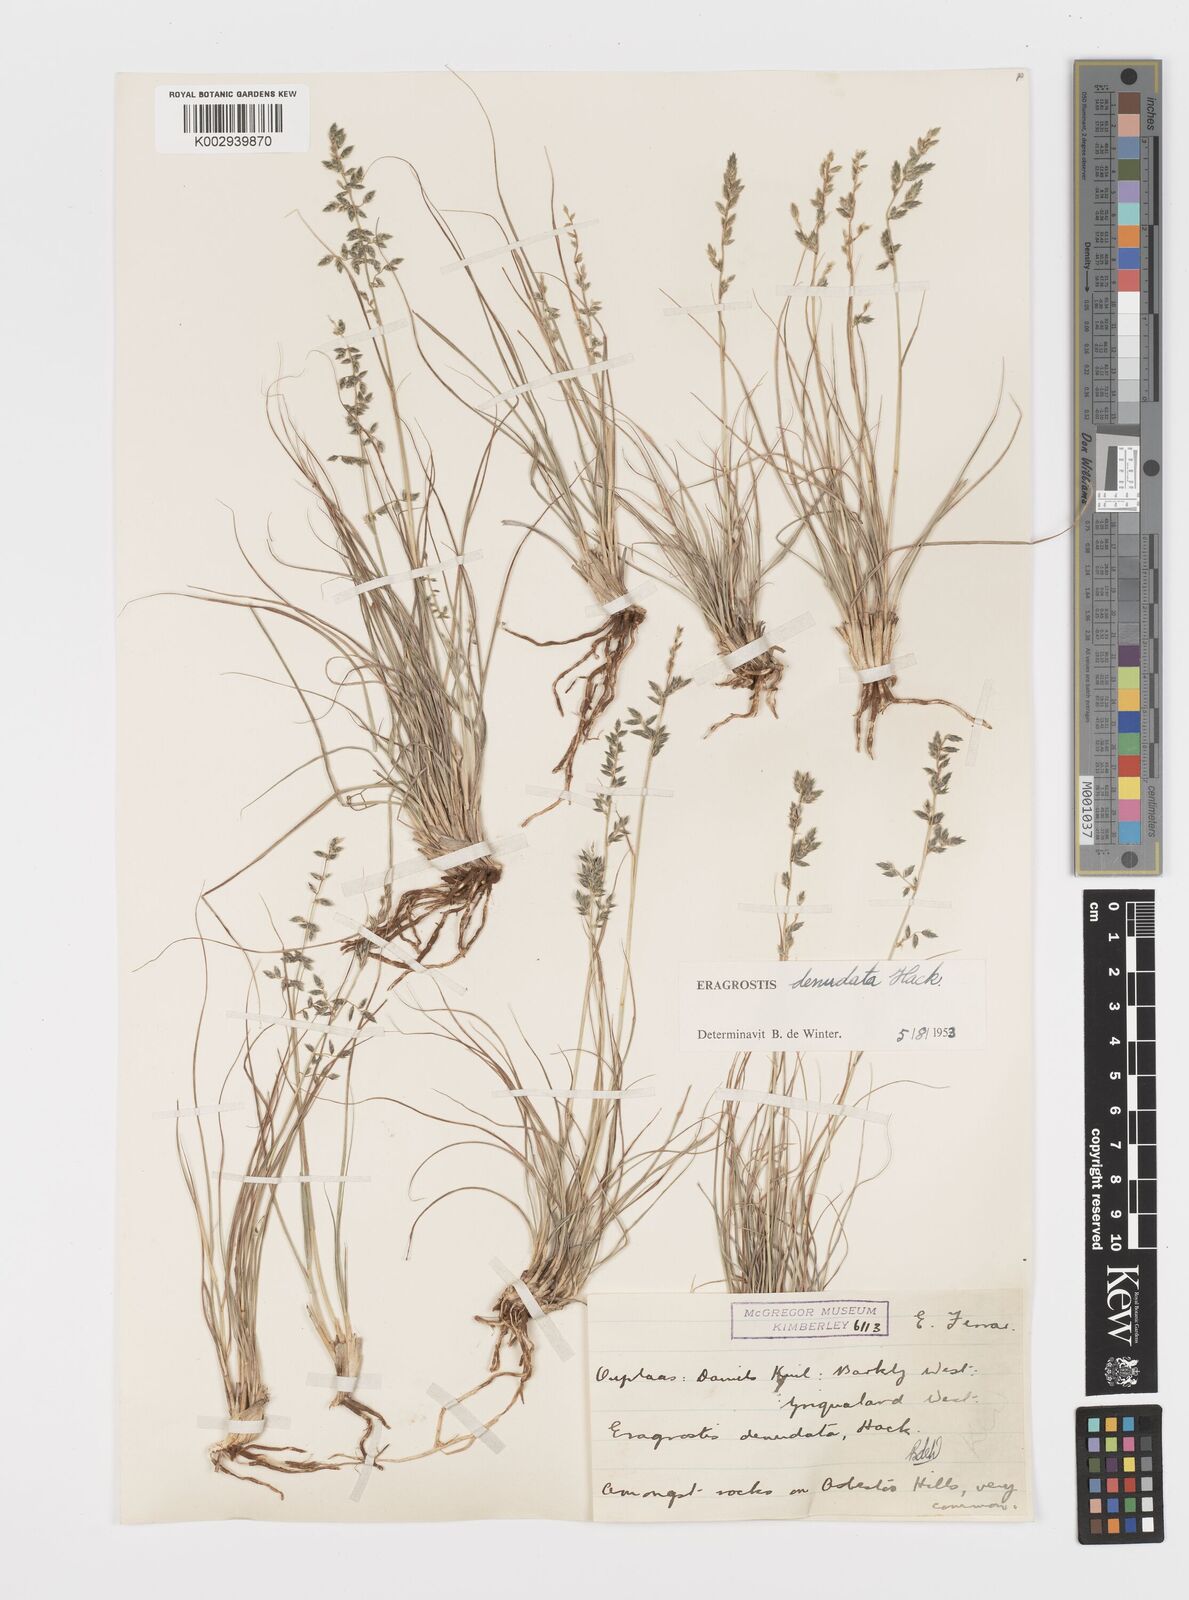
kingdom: Plantae
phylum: Tracheophyta
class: Liliopsida
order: Poales
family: Poaceae
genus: Eragrostis
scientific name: Eragrostis nindensis
